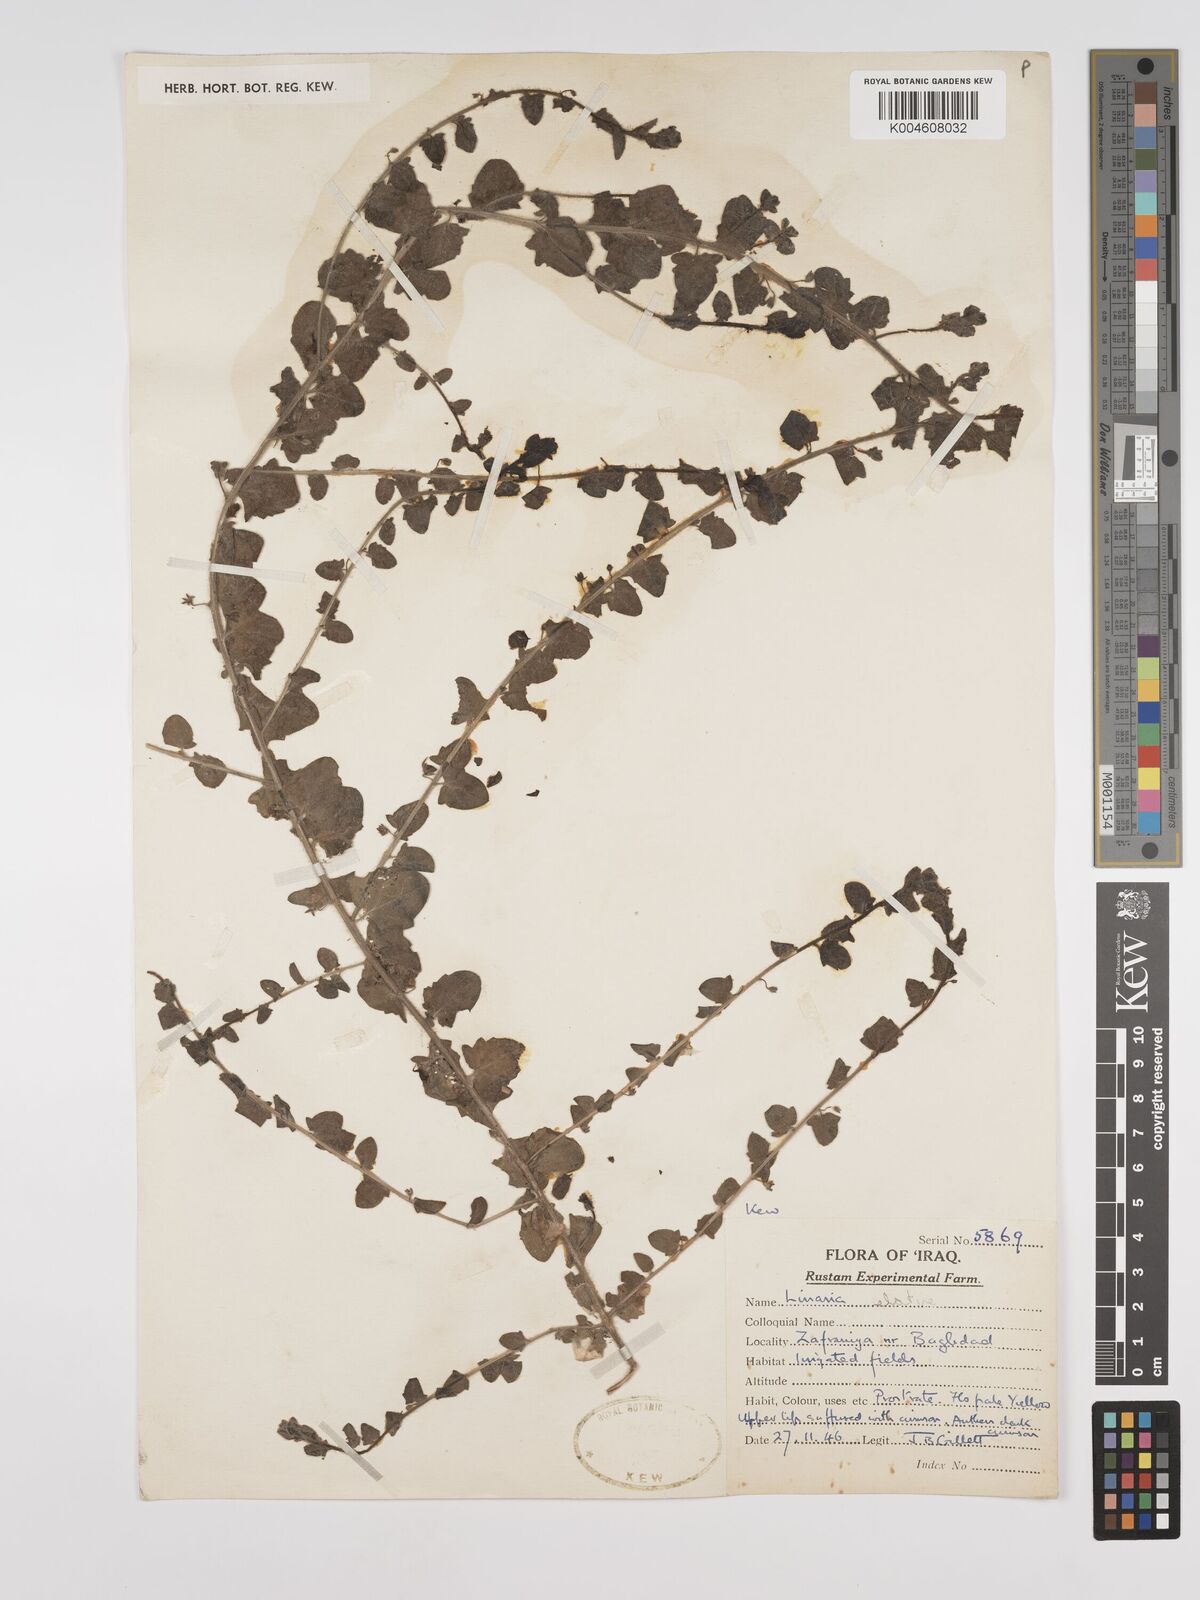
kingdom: Plantae
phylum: Tracheophyta
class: Magnoliopsida
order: Lamiales
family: Plantaginaceae
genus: Kickxia
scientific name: Kickxia elatine
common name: Sharp-leaved fluellen
